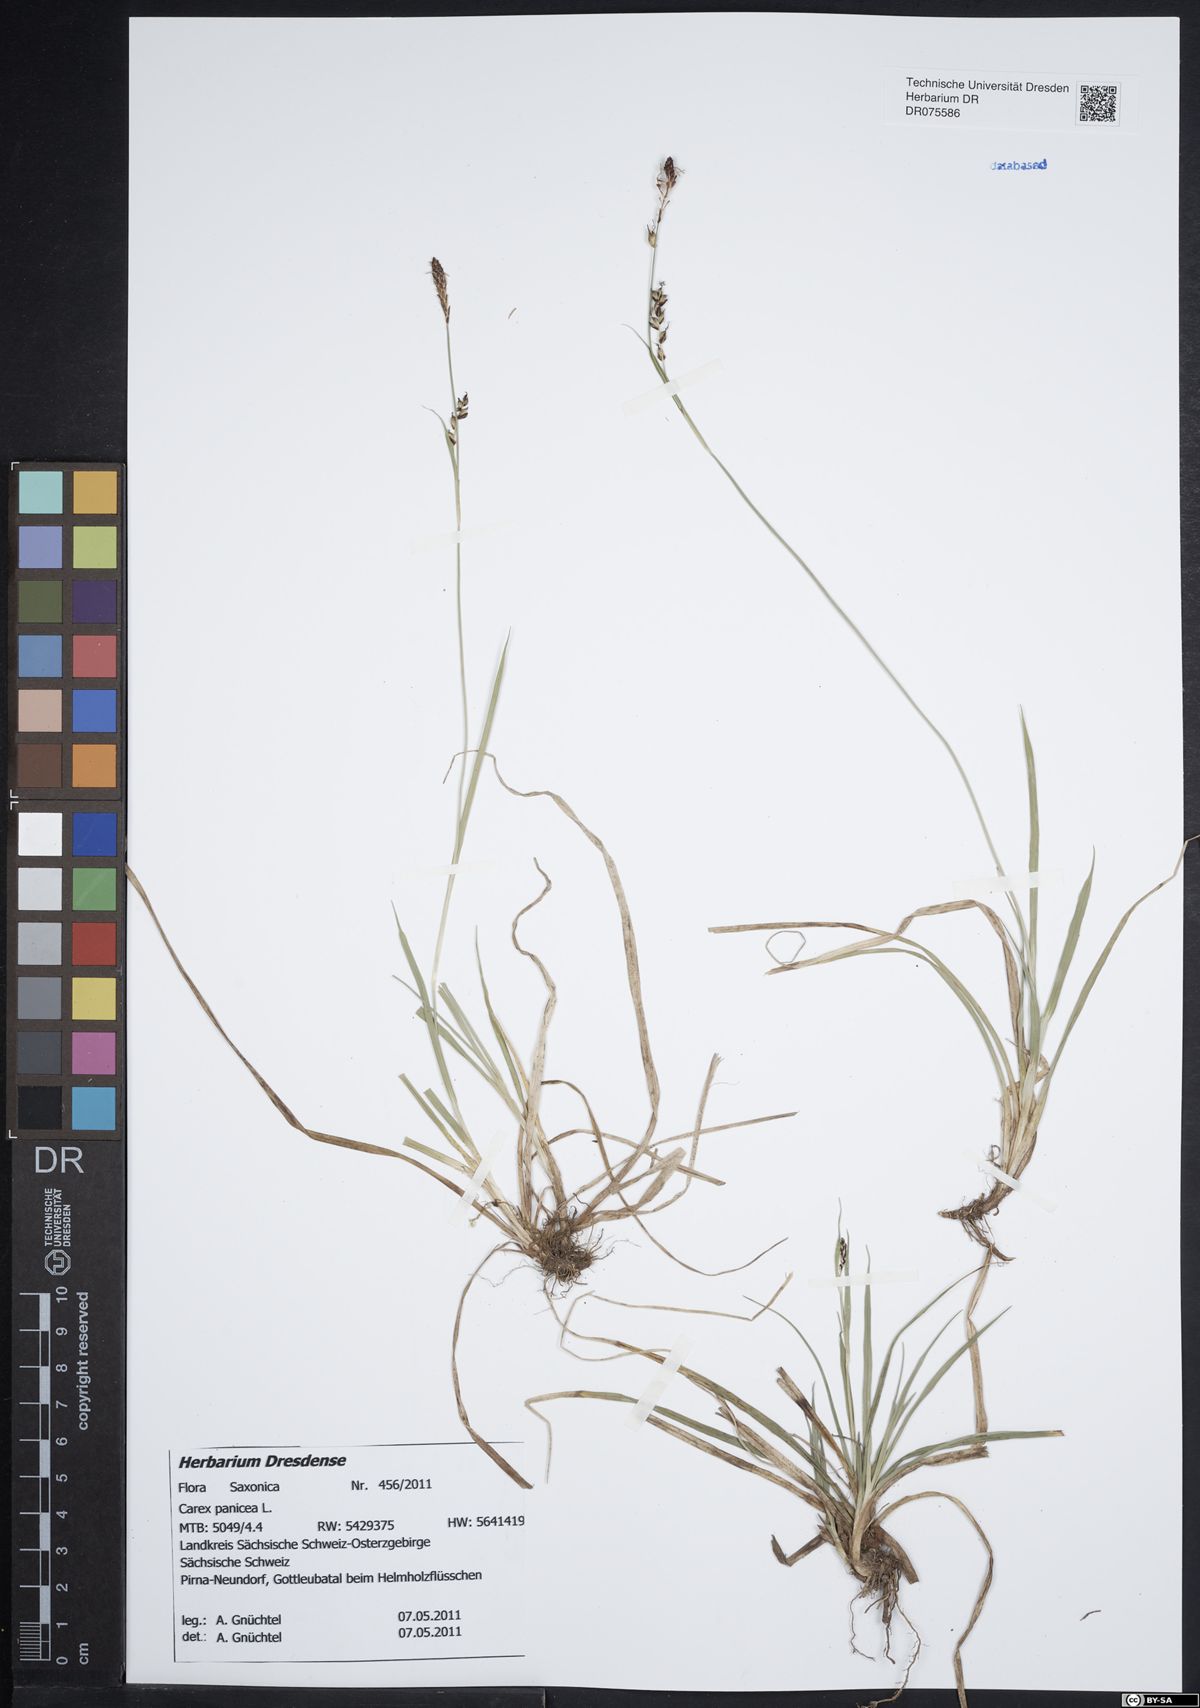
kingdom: Plantae
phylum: Tracheophyta
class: Liliopsida
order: Poales
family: Cyperaceae
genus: Carex
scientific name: Carex panicea
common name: Carnation sedge
